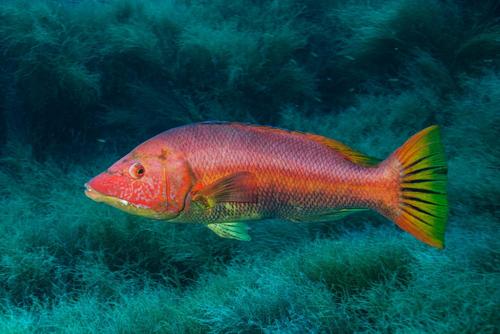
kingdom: Animalia
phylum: Chordata
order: Perciformes
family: Labridae
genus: Bodianus
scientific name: Bodianus scrofa
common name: Barred hogfish
